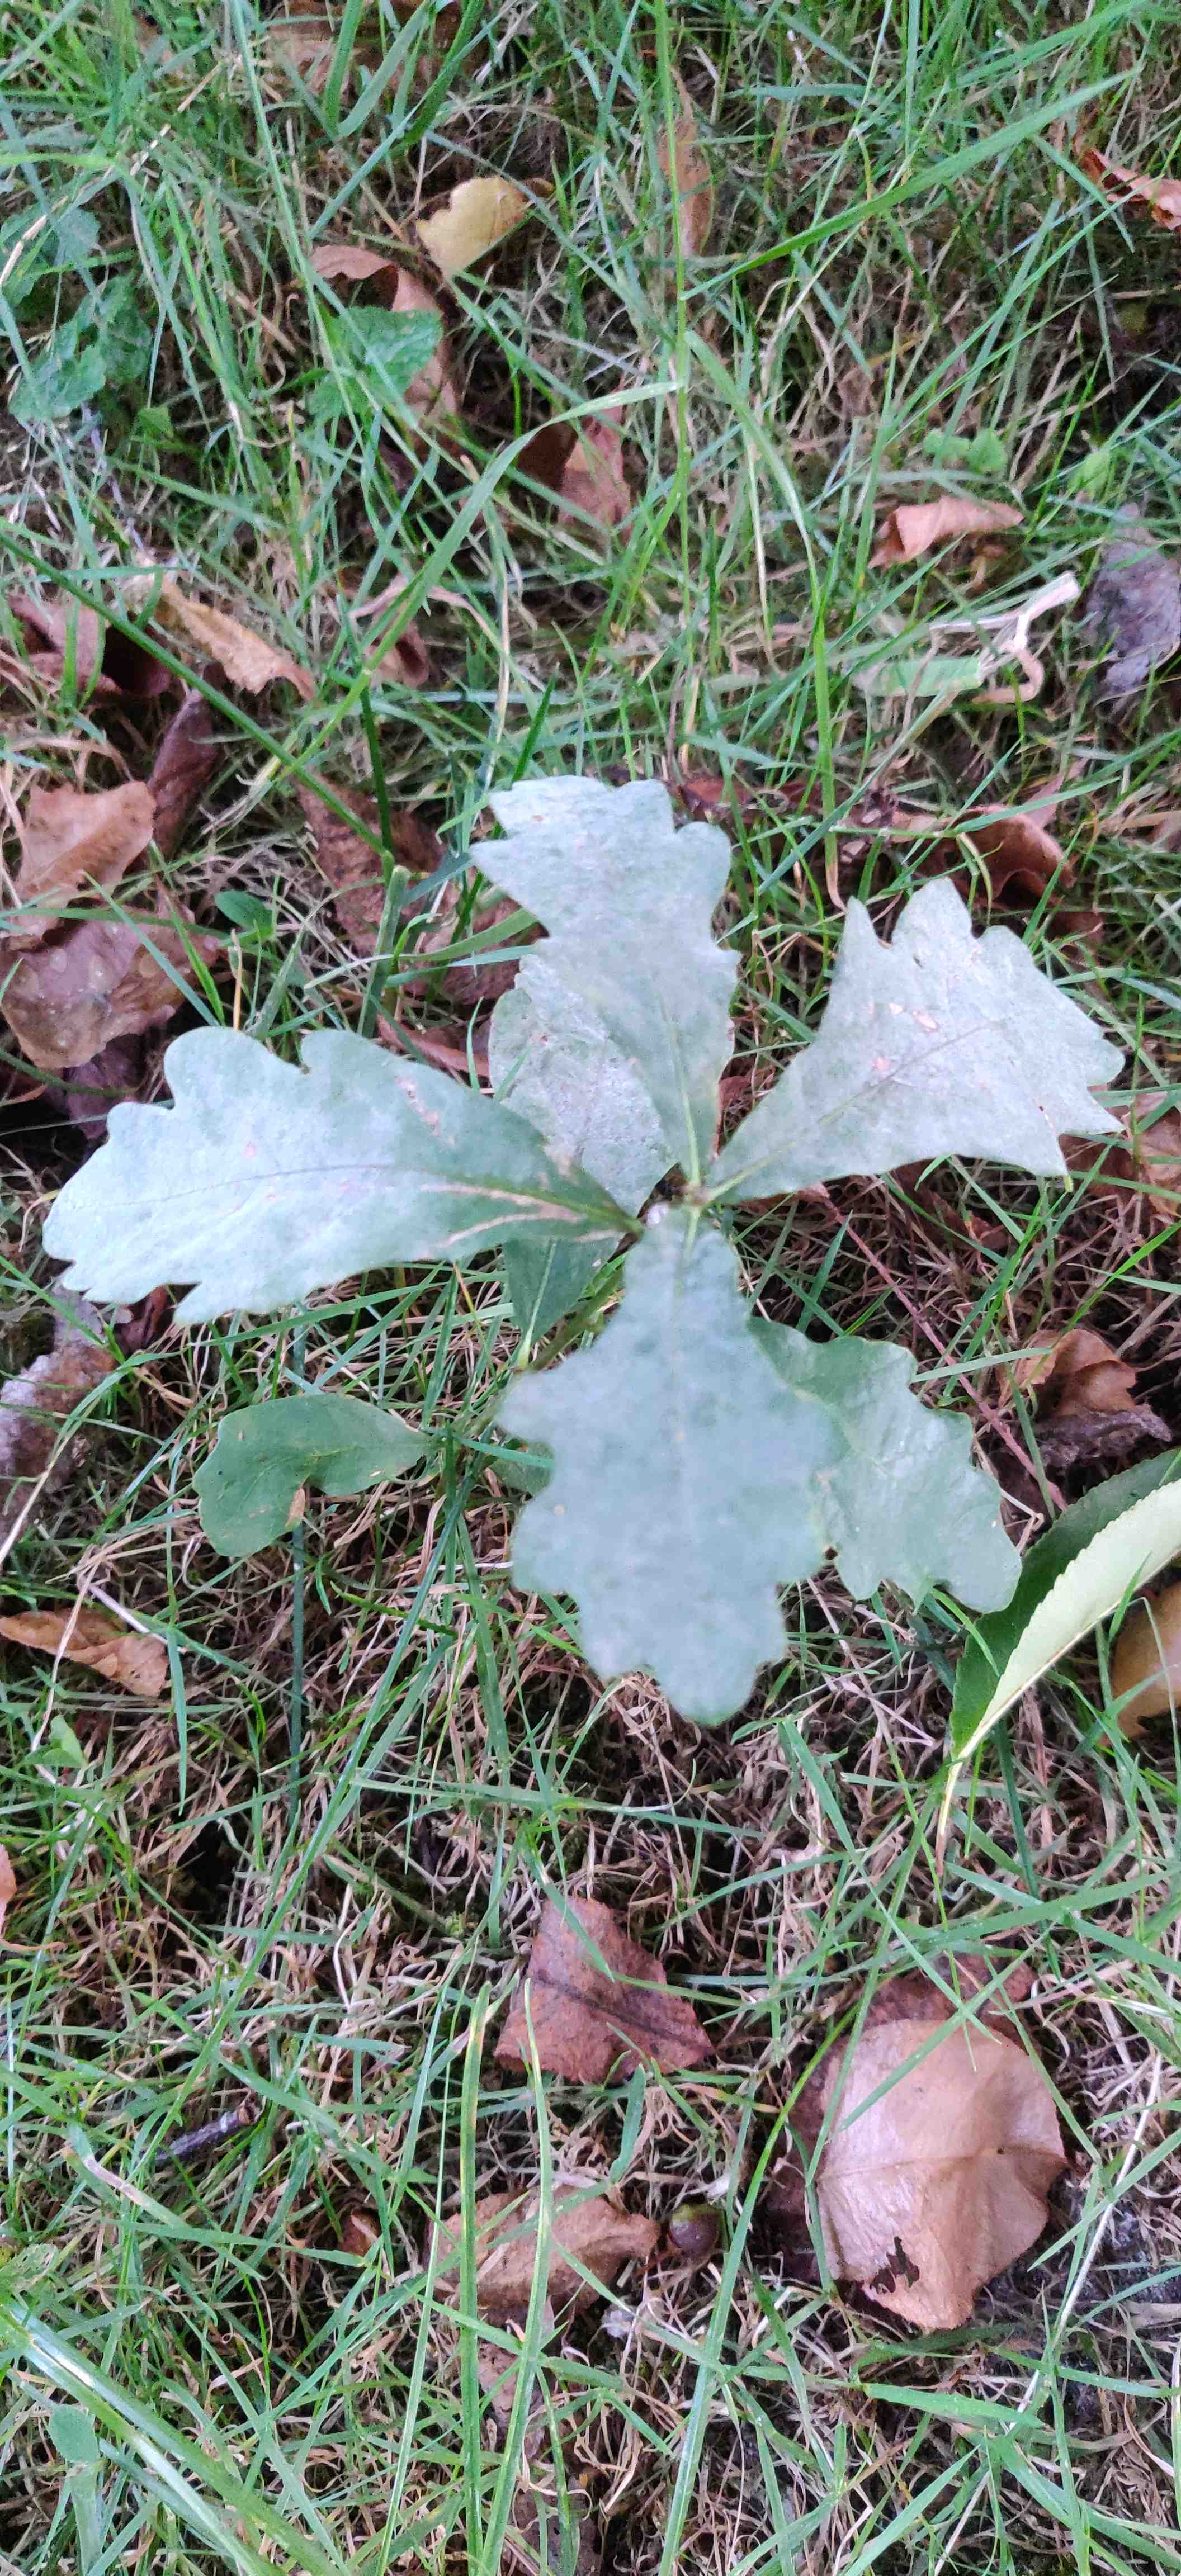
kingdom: Fungi
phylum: Ascomycota
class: Leotiomycetes
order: Helotiales
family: Erysiphaceae
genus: Erysiphe
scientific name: Erysiphe alphitoides
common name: ege-meldug
